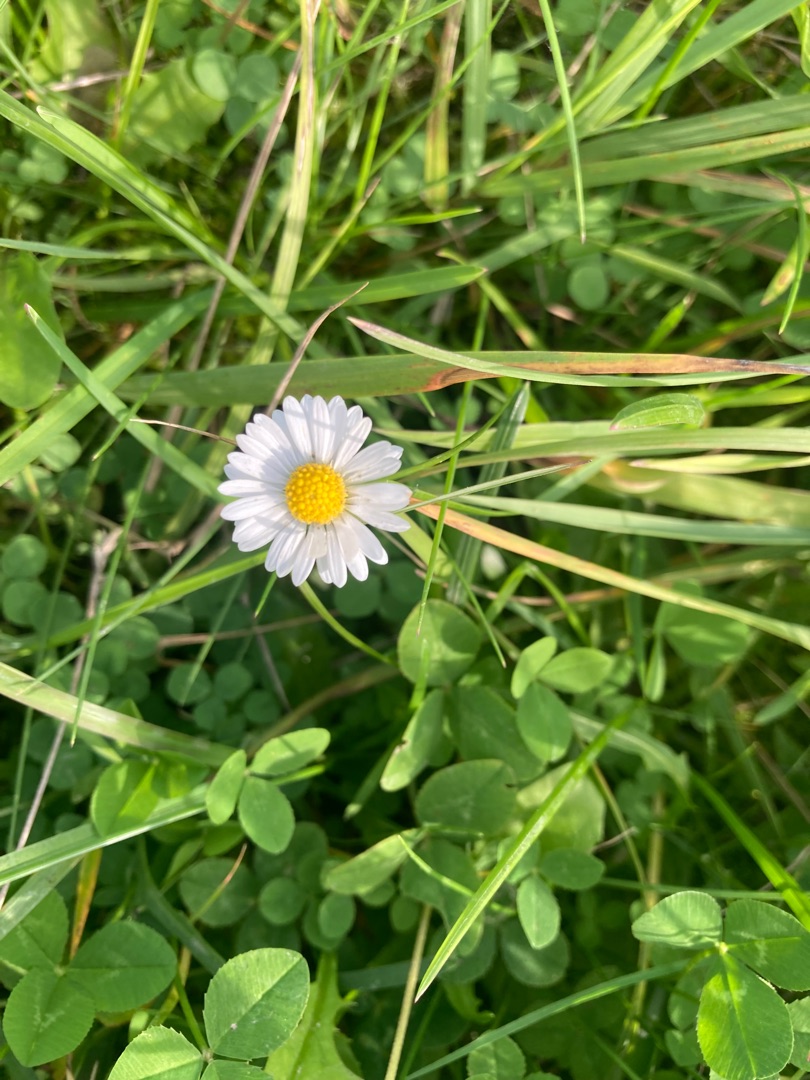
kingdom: Plantae
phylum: Tracheophyta
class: Magnoliopsida
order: Asterales
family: Asteraceae
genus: Bellis
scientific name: Bellis perennis
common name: Tusindfryd
